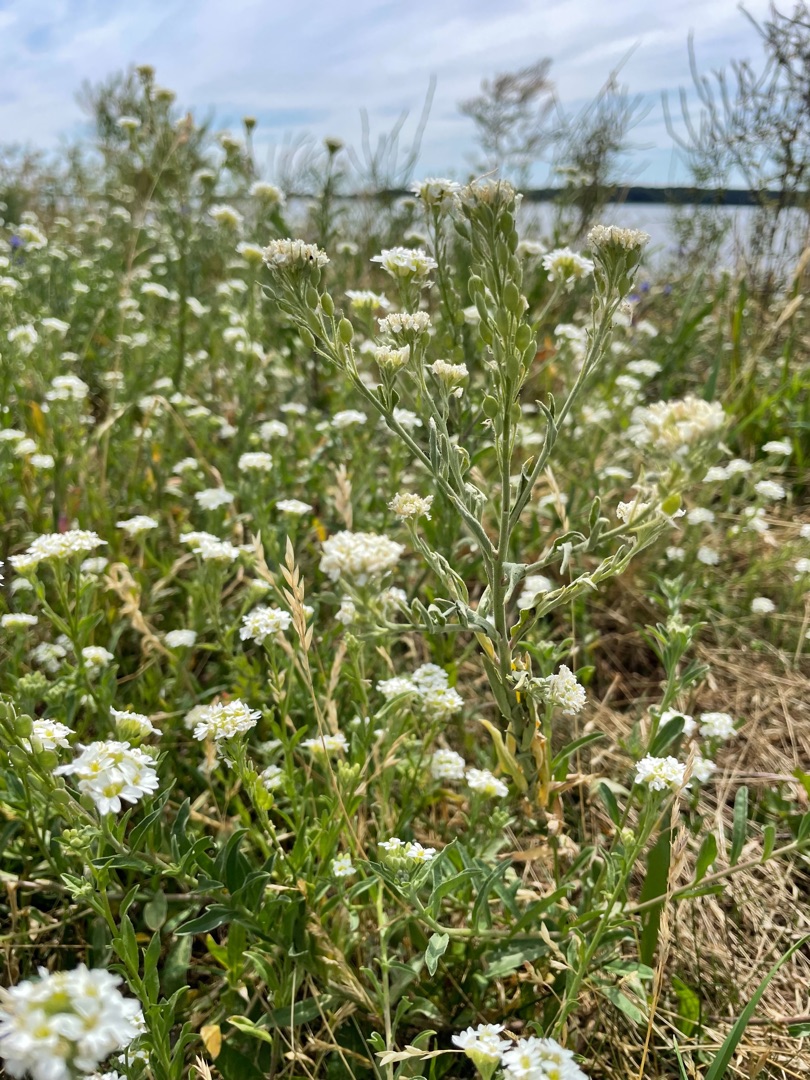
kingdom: Plantae
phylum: Tracheophyta
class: Magnoliopsida
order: Brassicales
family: Brassicaceae
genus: Berteroa
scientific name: Berteroa incana
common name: Kløvplade
